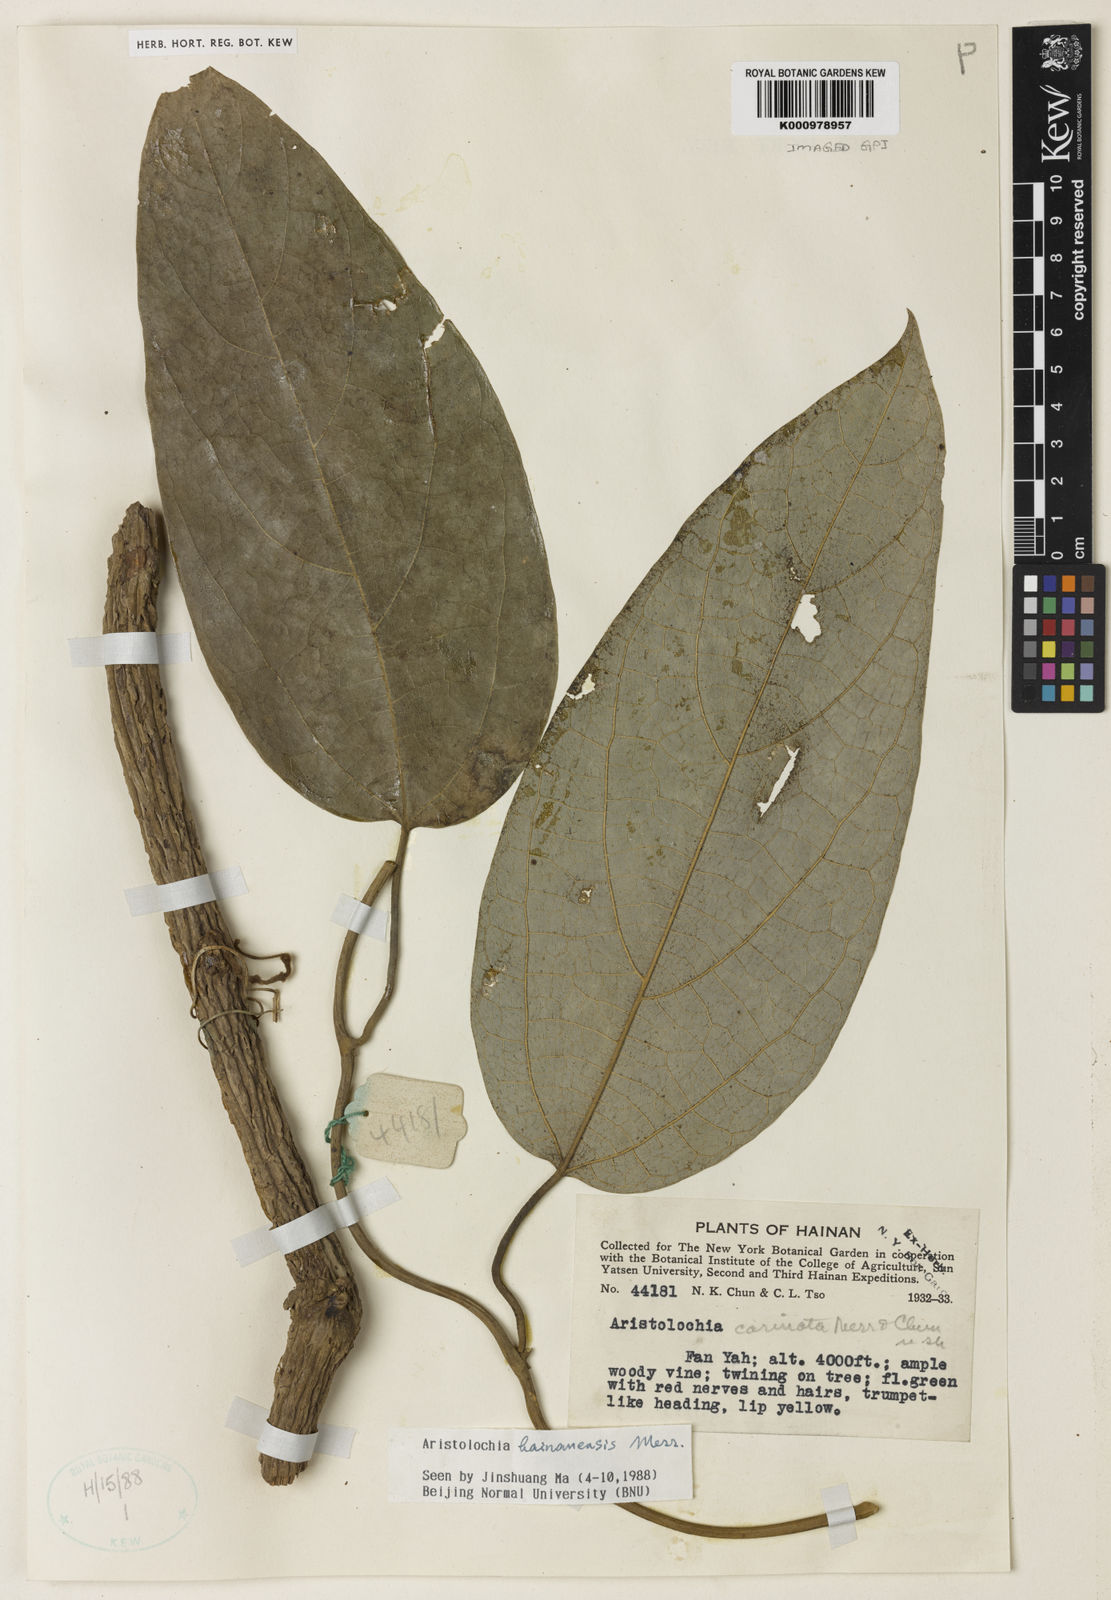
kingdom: Plantae
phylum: Tracheophyta
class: Magnoliopsida
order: Piperales
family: Aristolochiaceae
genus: Isotrema
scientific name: Isotrema hainanense
